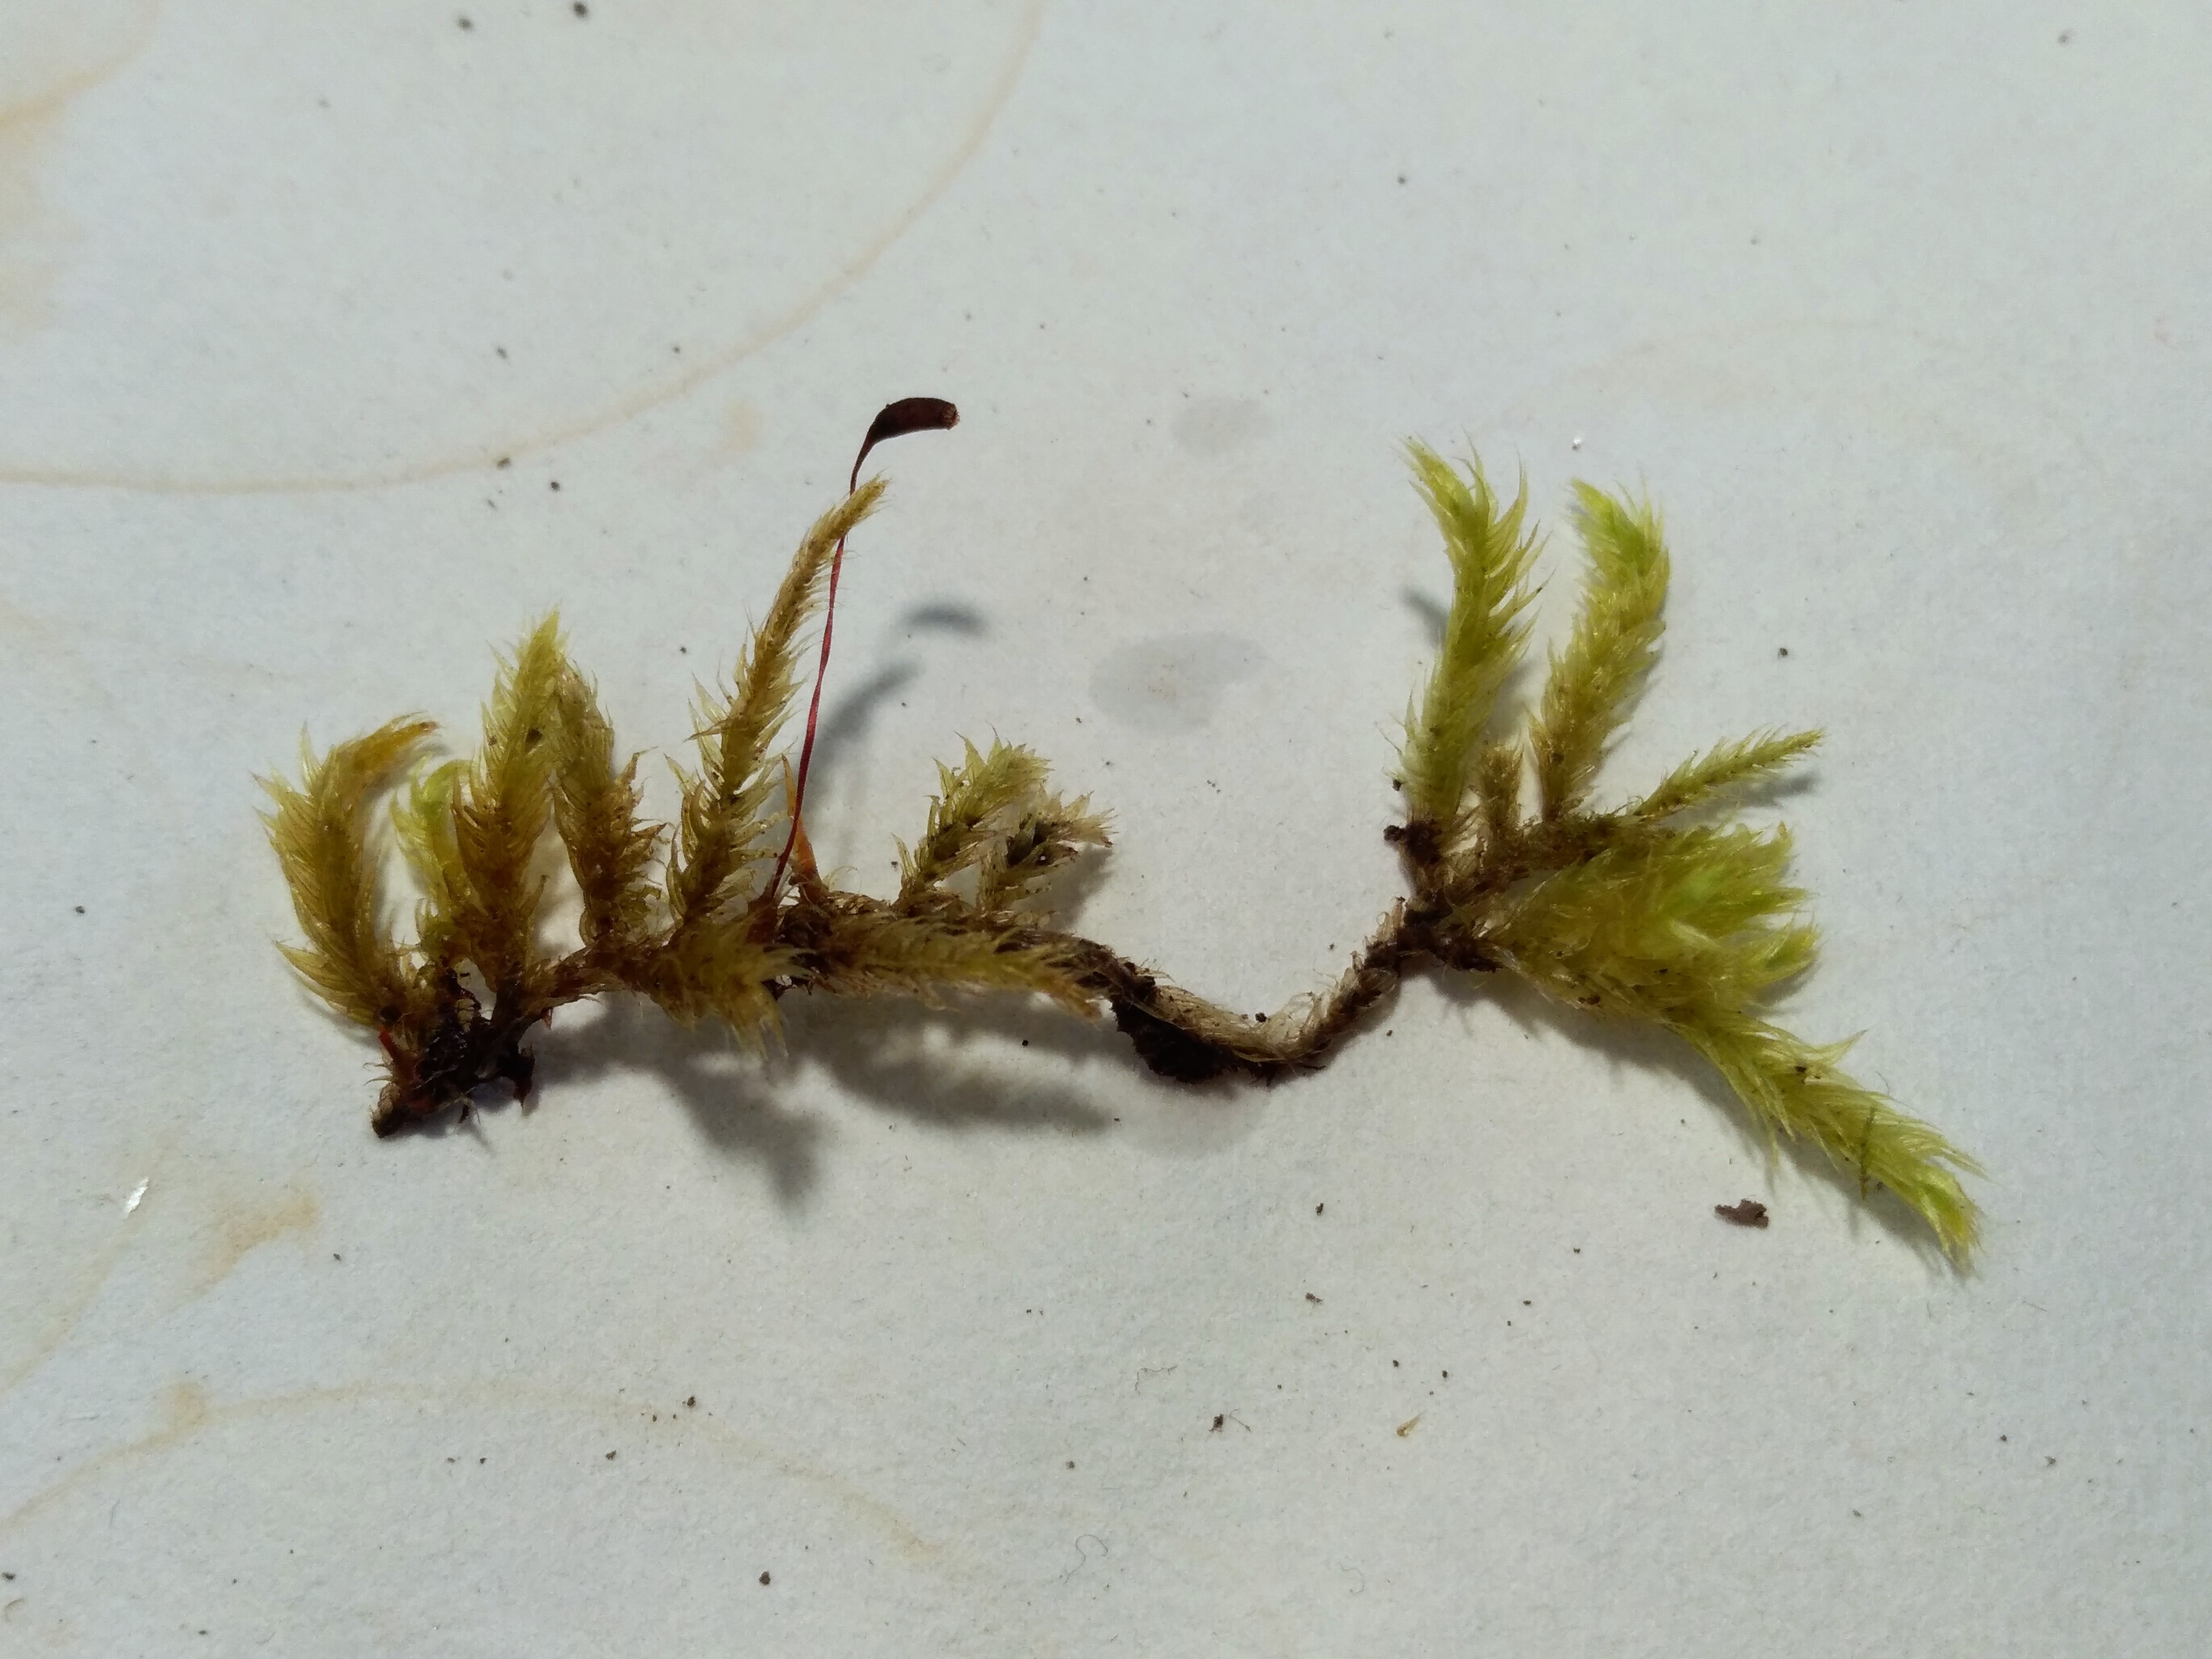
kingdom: Plantae
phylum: Bryophyta
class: Bryopsida
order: Hypnales
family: Brachytheciaceae
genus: Brachythecium
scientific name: Brachythecium salebrosum
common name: Skov-kortkapsel
